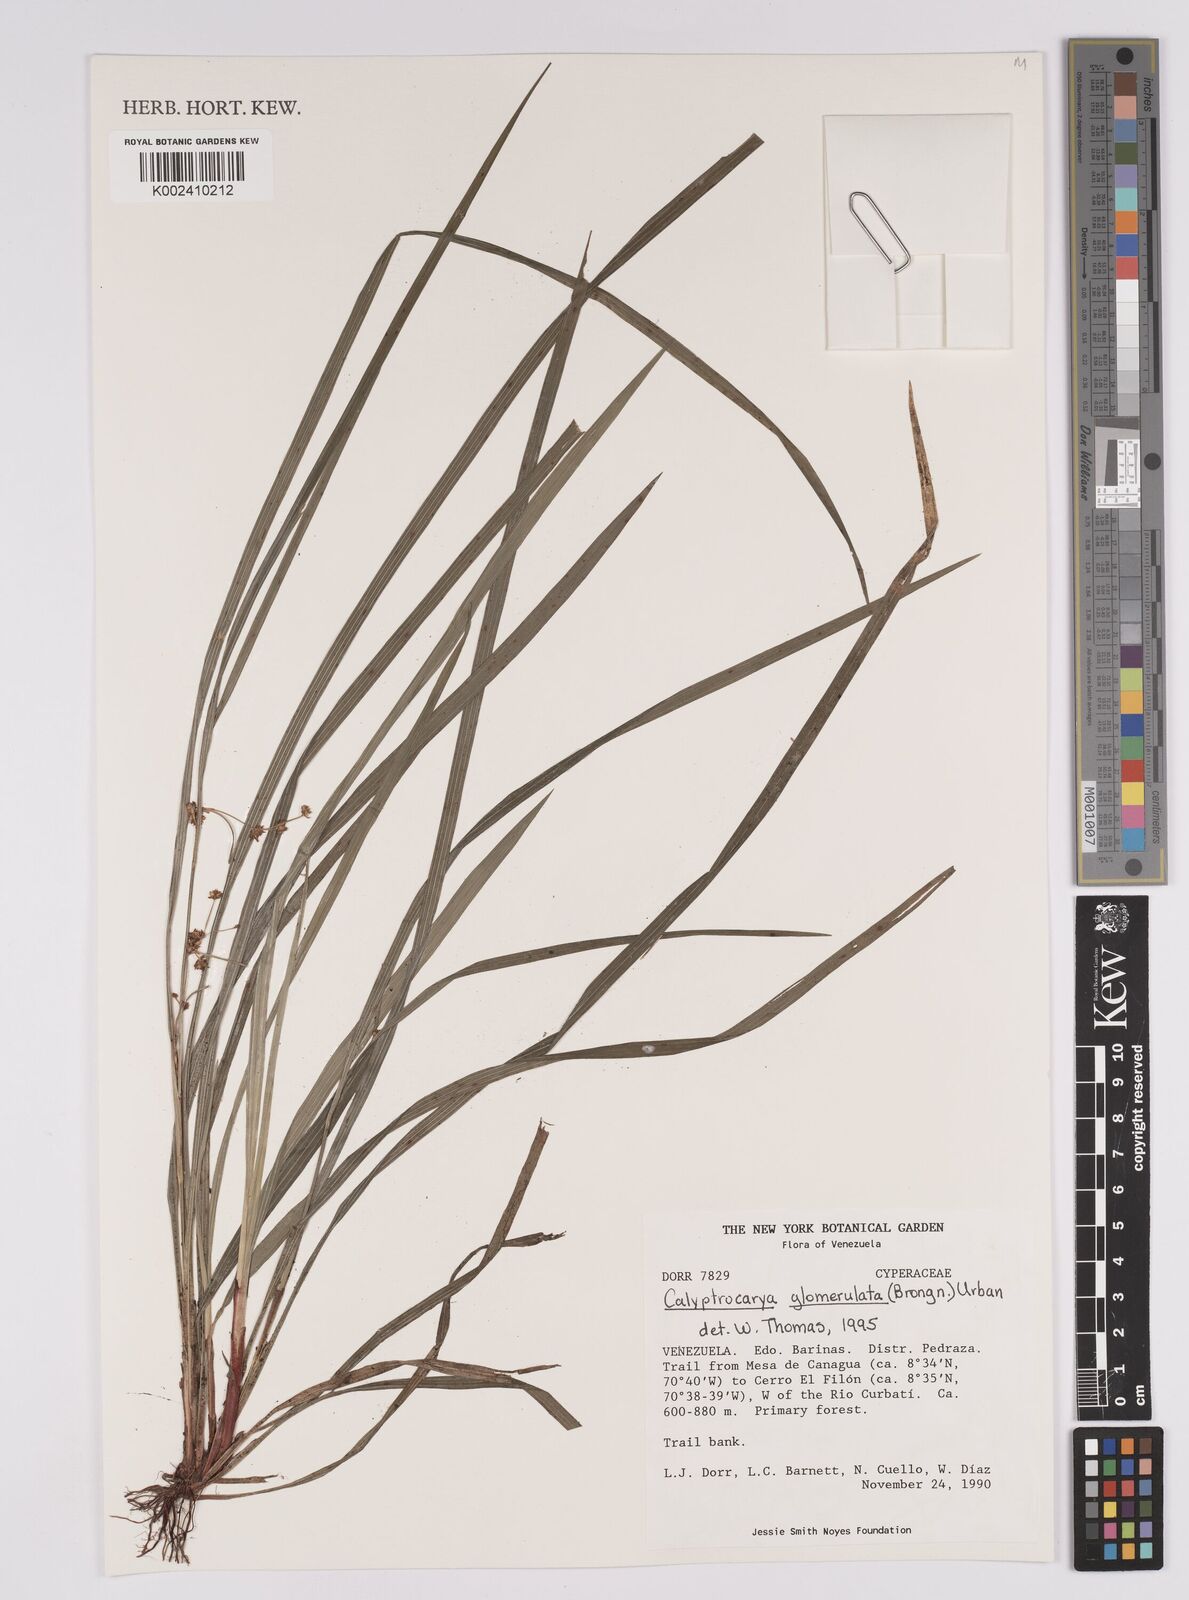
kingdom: Plantae
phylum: Tracheophyta
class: Liliopsida
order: Poales
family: Cyperaceae
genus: Calyptrocarya
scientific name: Calyptrocarya glomerulata
